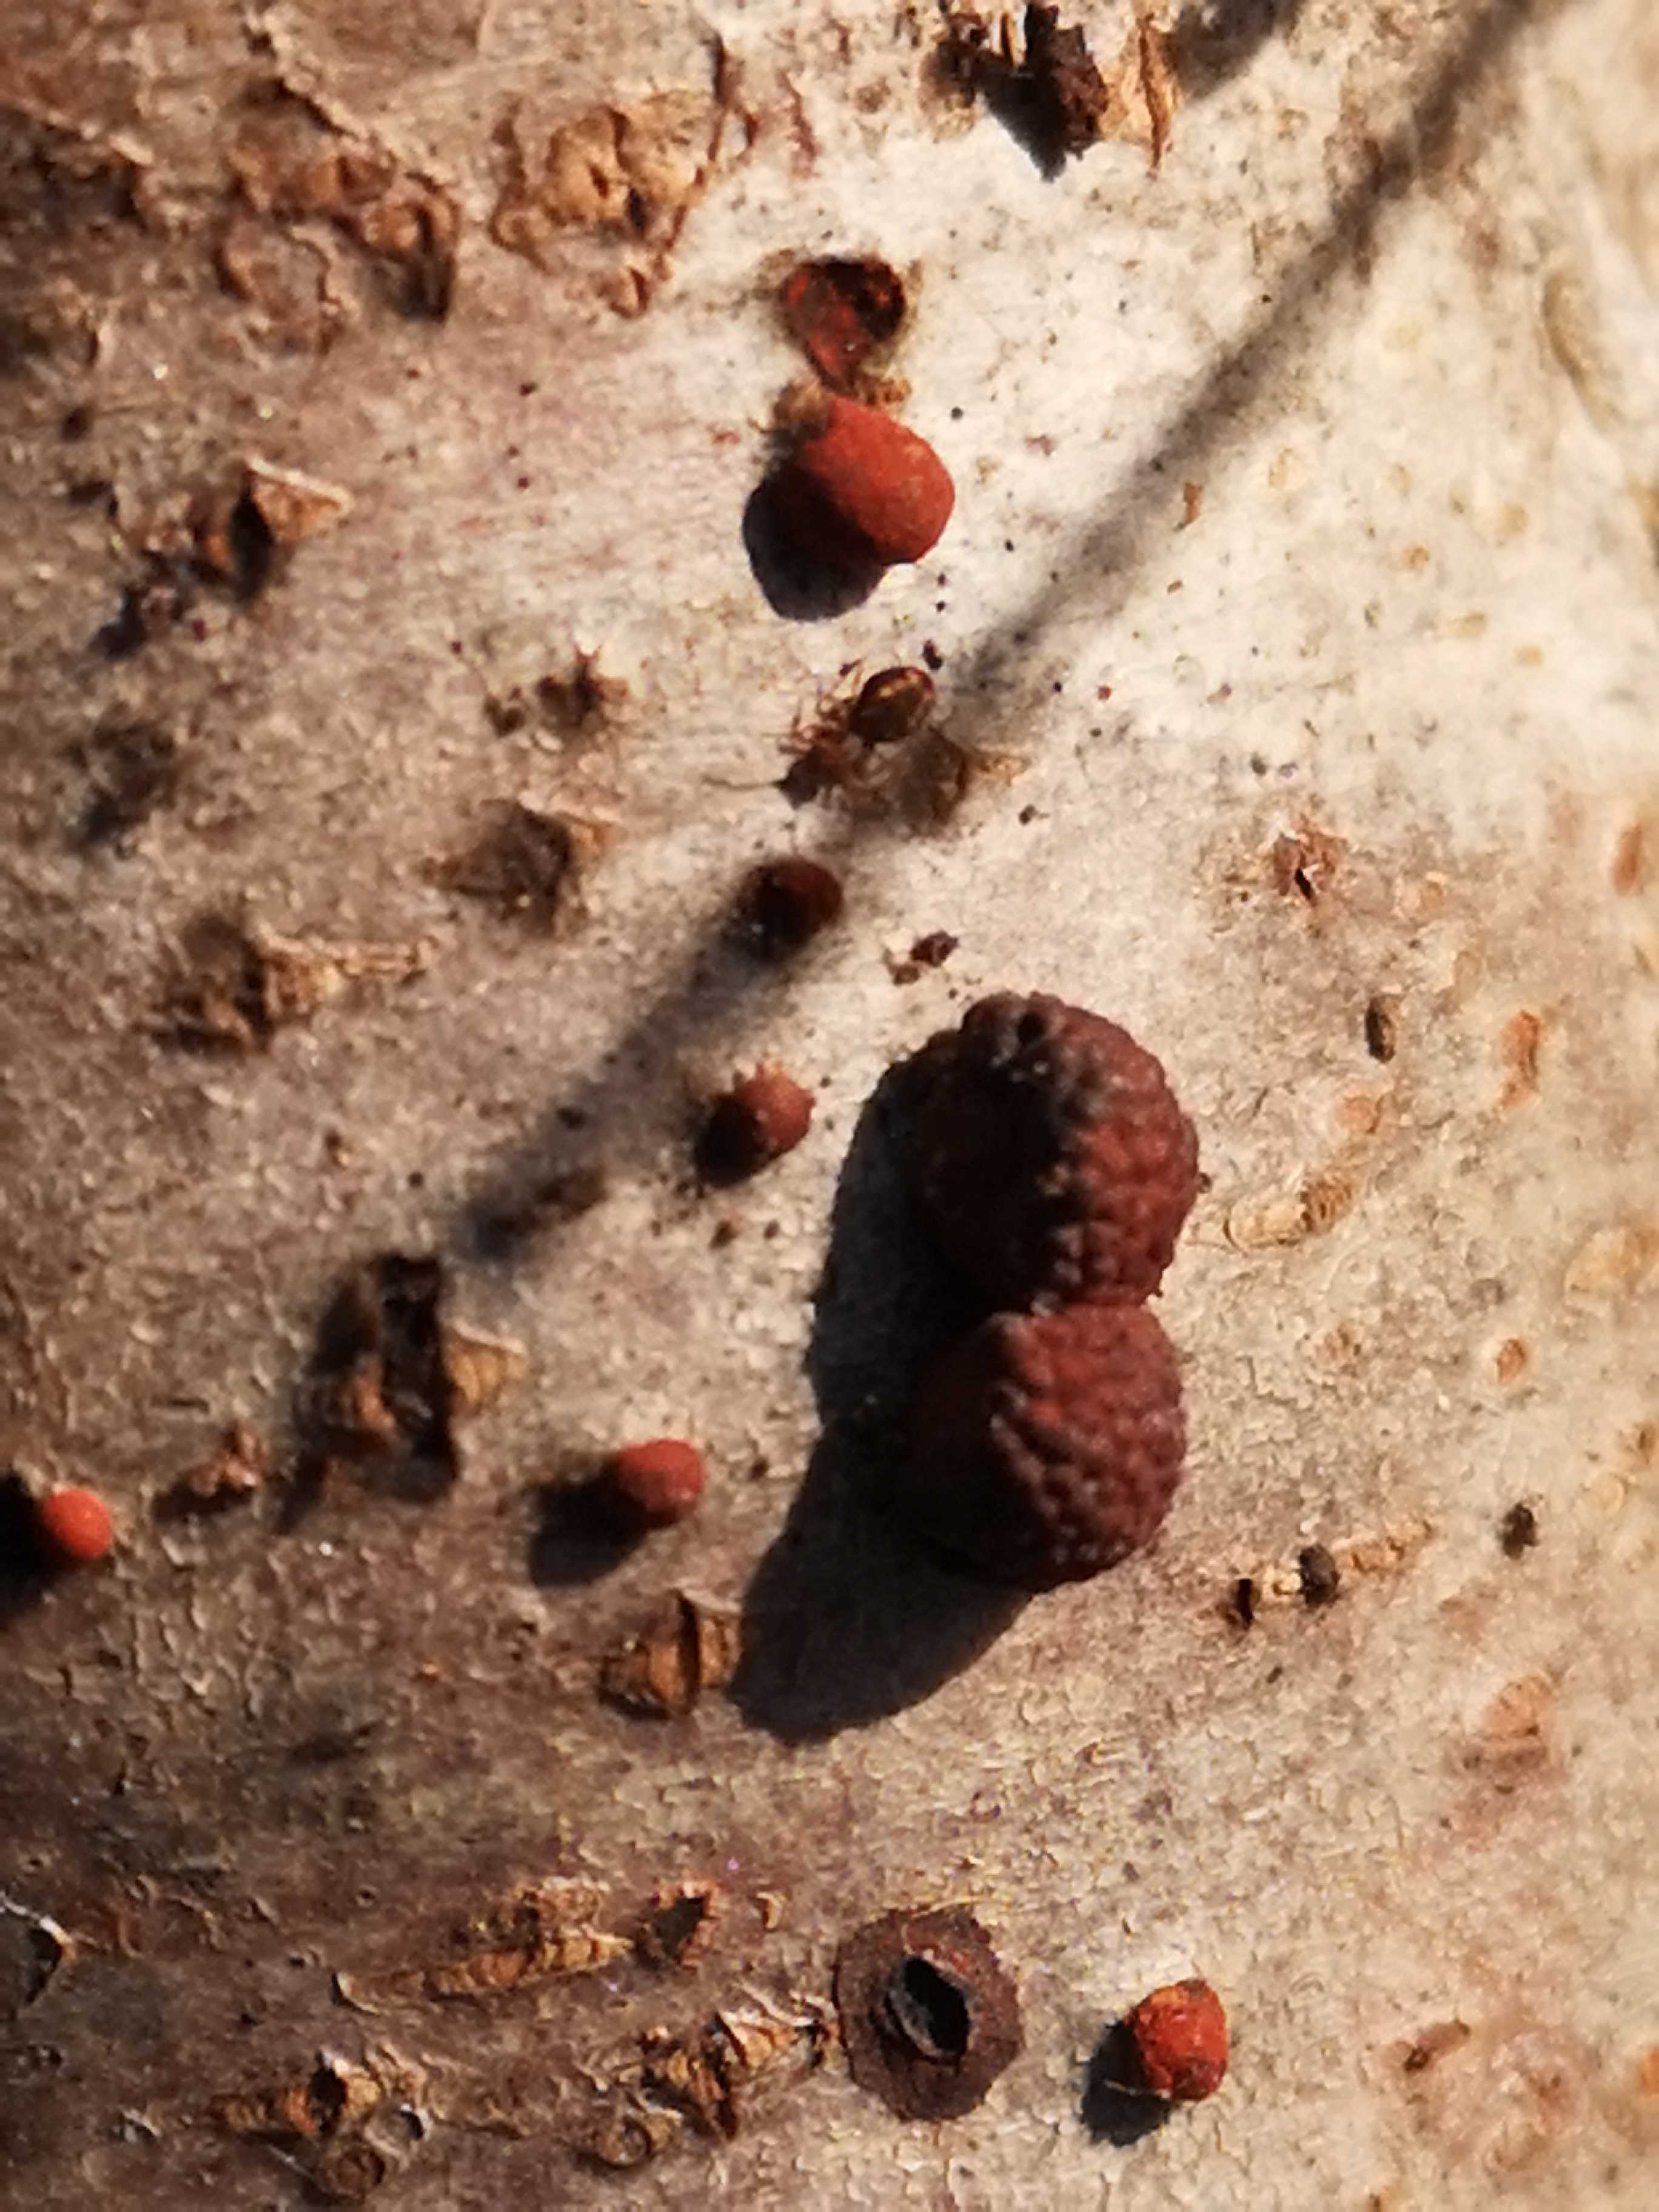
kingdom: Fungi
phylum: Ascomycota
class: Sordariomycetes
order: Xylariales
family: Hypoxylaceae
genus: Hypoxylon
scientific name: Hypoxylon fragiforme
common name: kuljordbær
